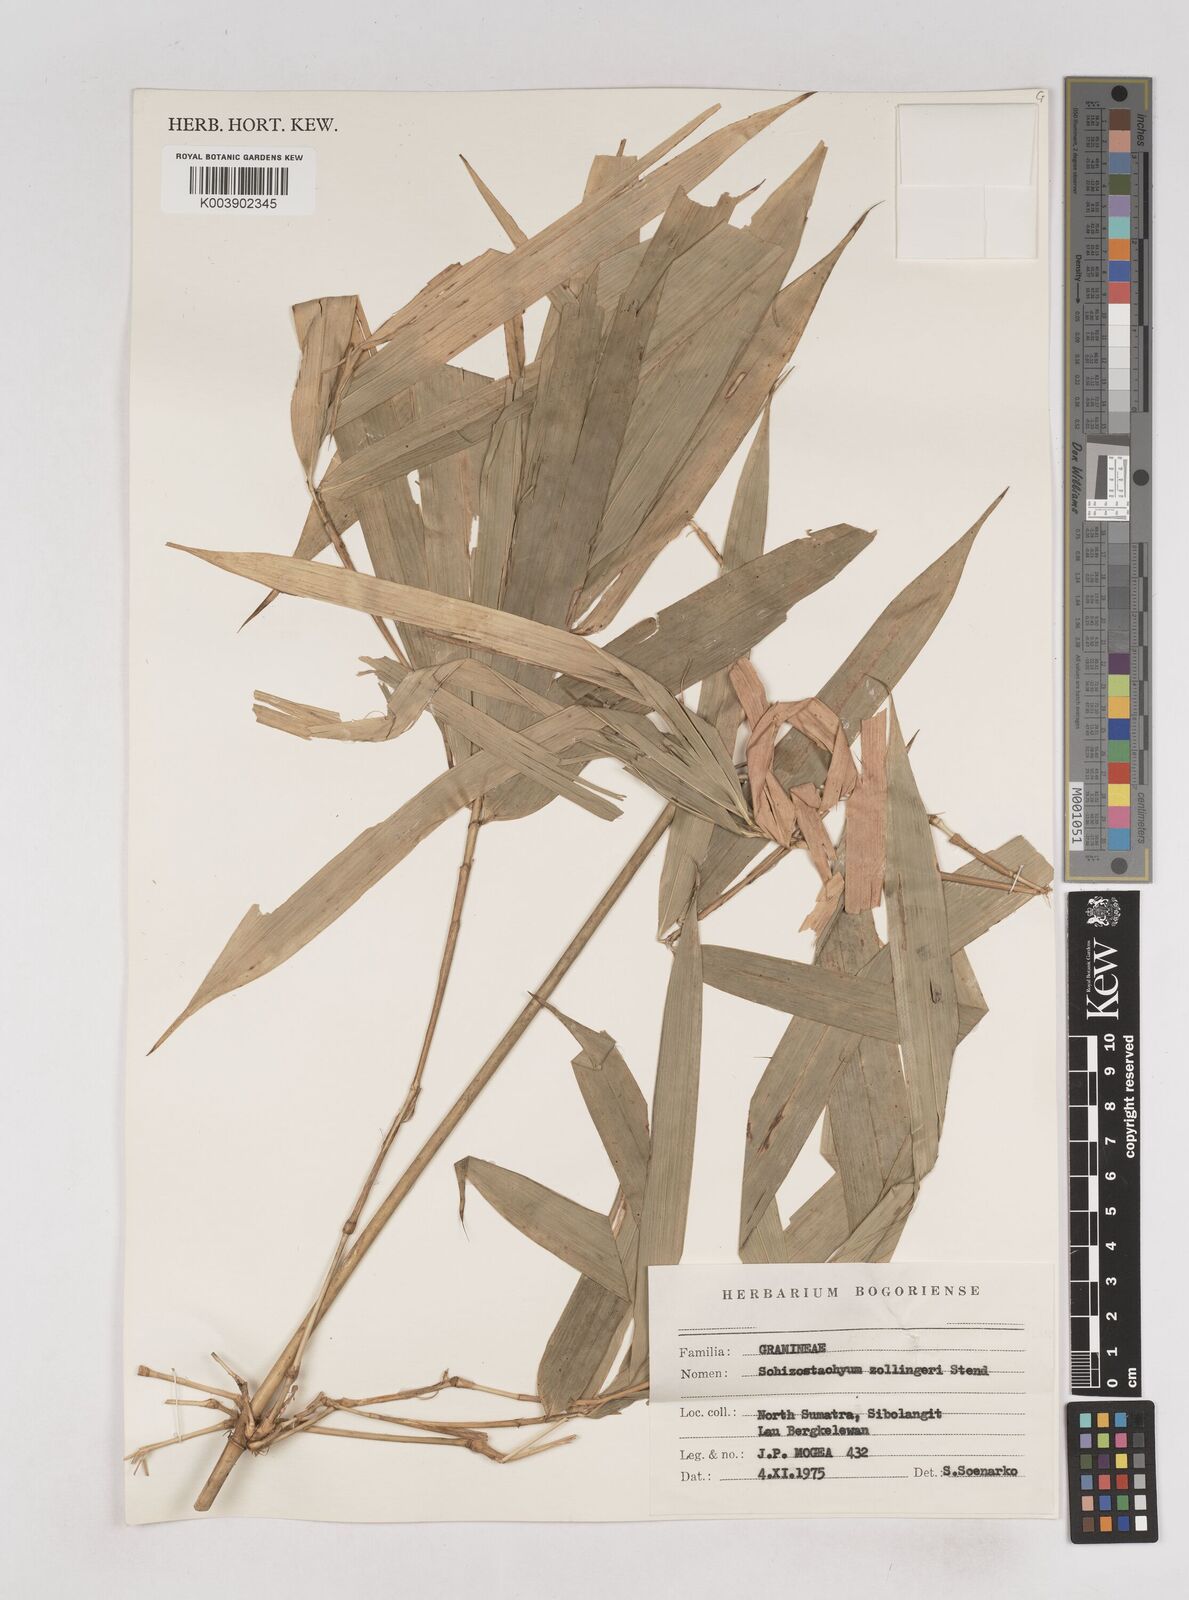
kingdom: Plantae
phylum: Tracheophyta
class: Liliopsida
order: Poales
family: Poaceae
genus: Schizostachyum
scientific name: Schizostachyum zollingeri
